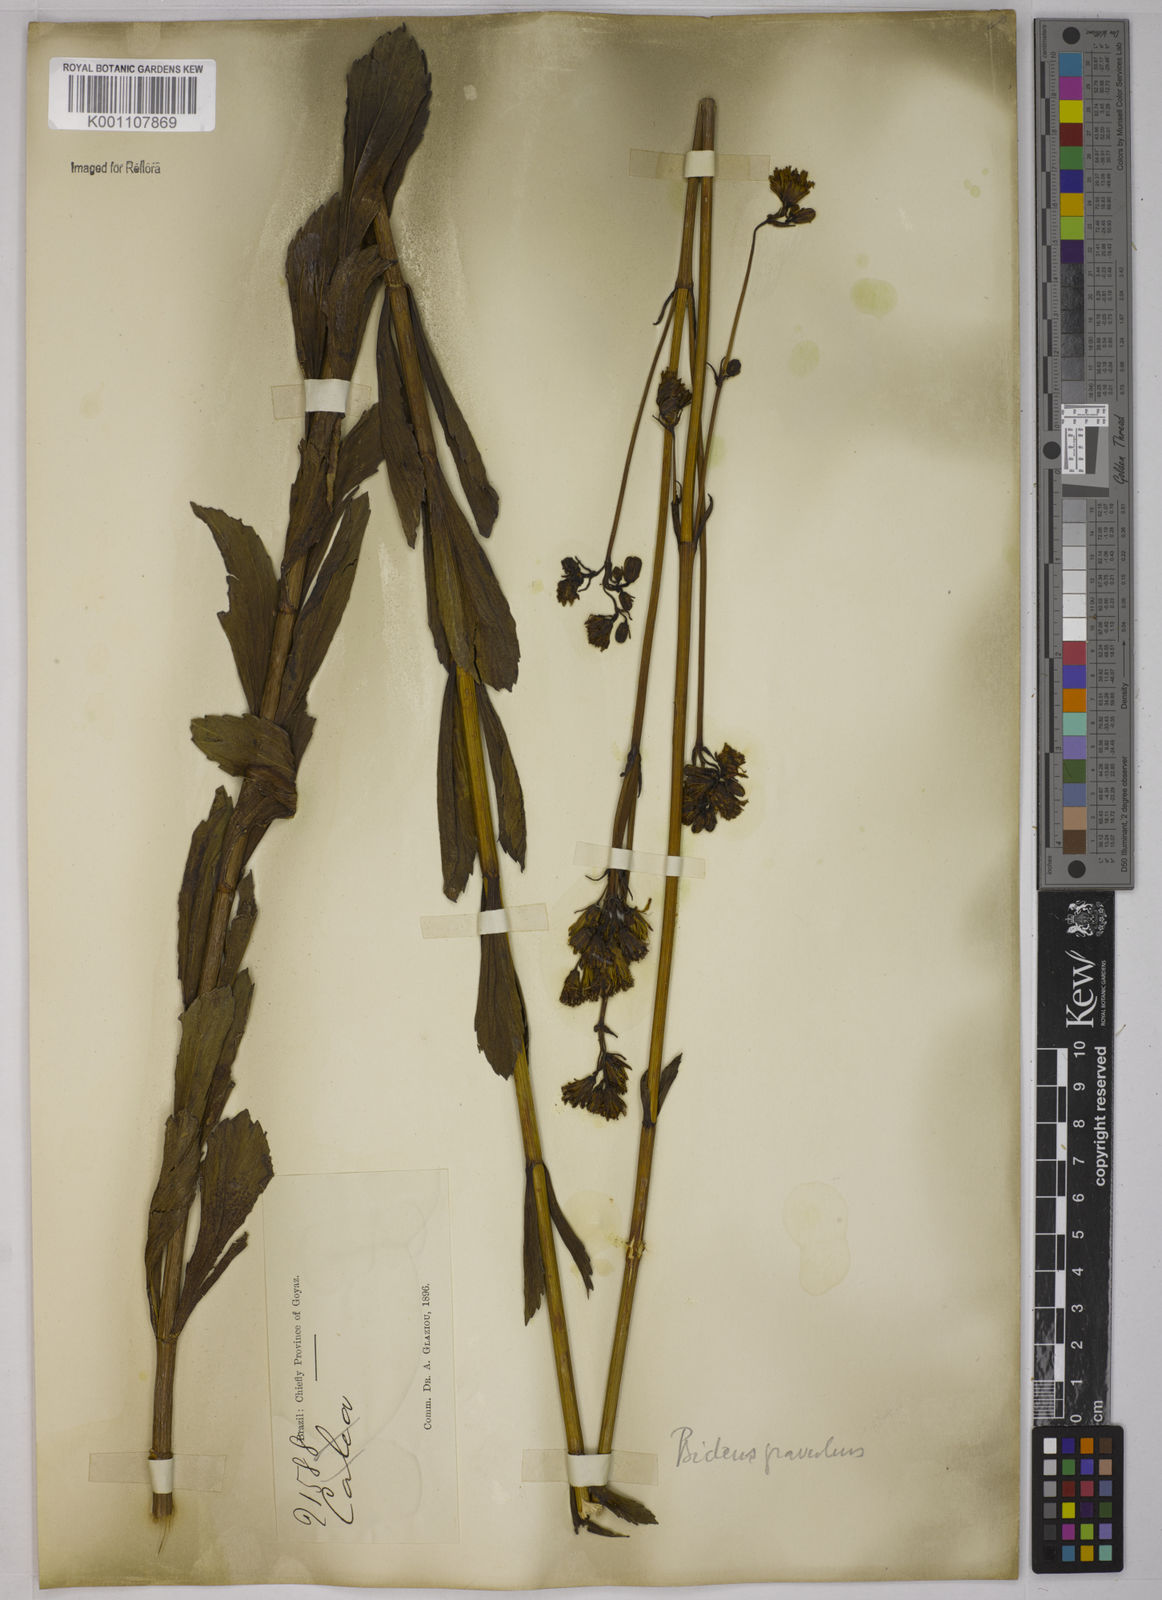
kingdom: Plantae
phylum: Tracheophyta
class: Magnoliopsida
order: Asterales
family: Asteraceae
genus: Bidens
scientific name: Bidens graveolens
